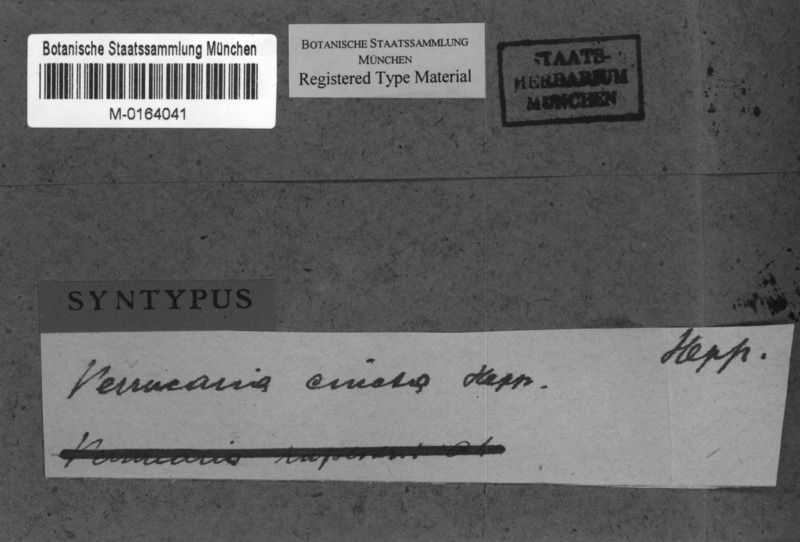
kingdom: Fungi
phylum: Ascomycota
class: Eurotiomycetes
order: Verrucariales
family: Verrucariaceae
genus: Verrucaria
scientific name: Verrucaria cincta
